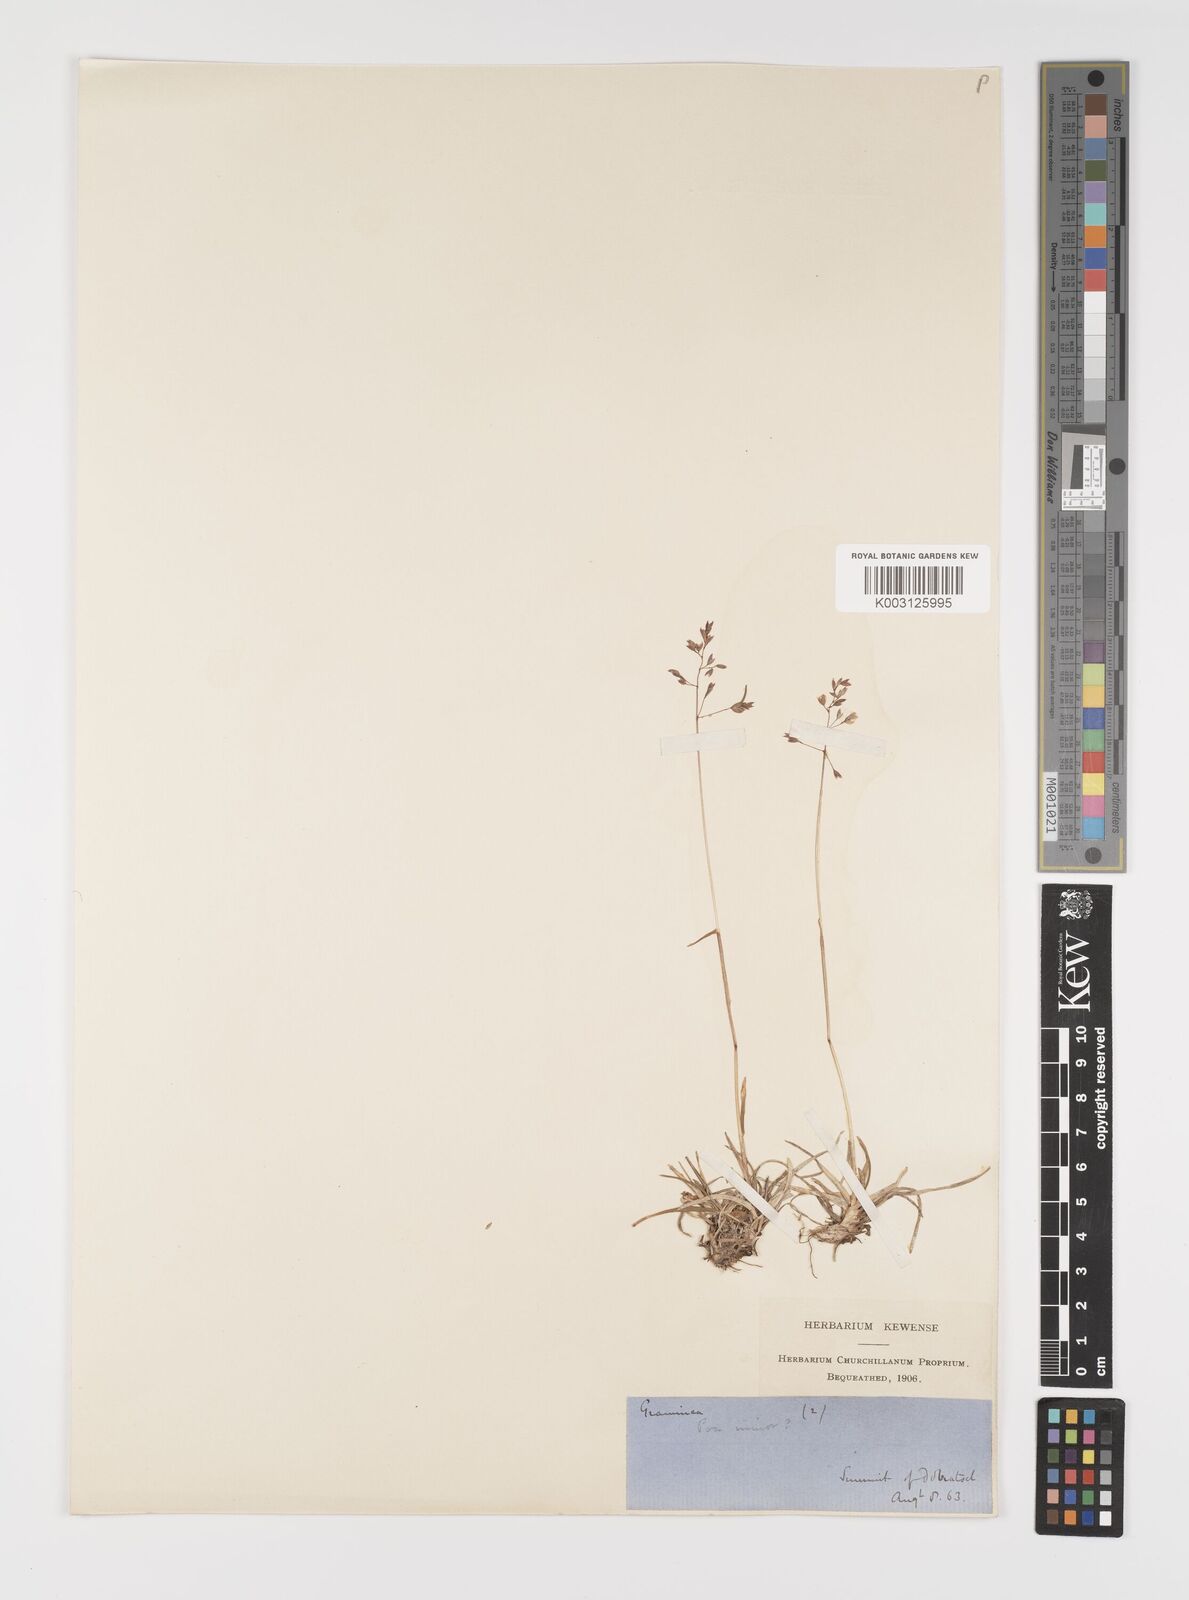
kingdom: Plantae
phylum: Tracheophyta
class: Liliopsida
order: Poales
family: Poaceae
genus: Poa
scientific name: Poa minor
